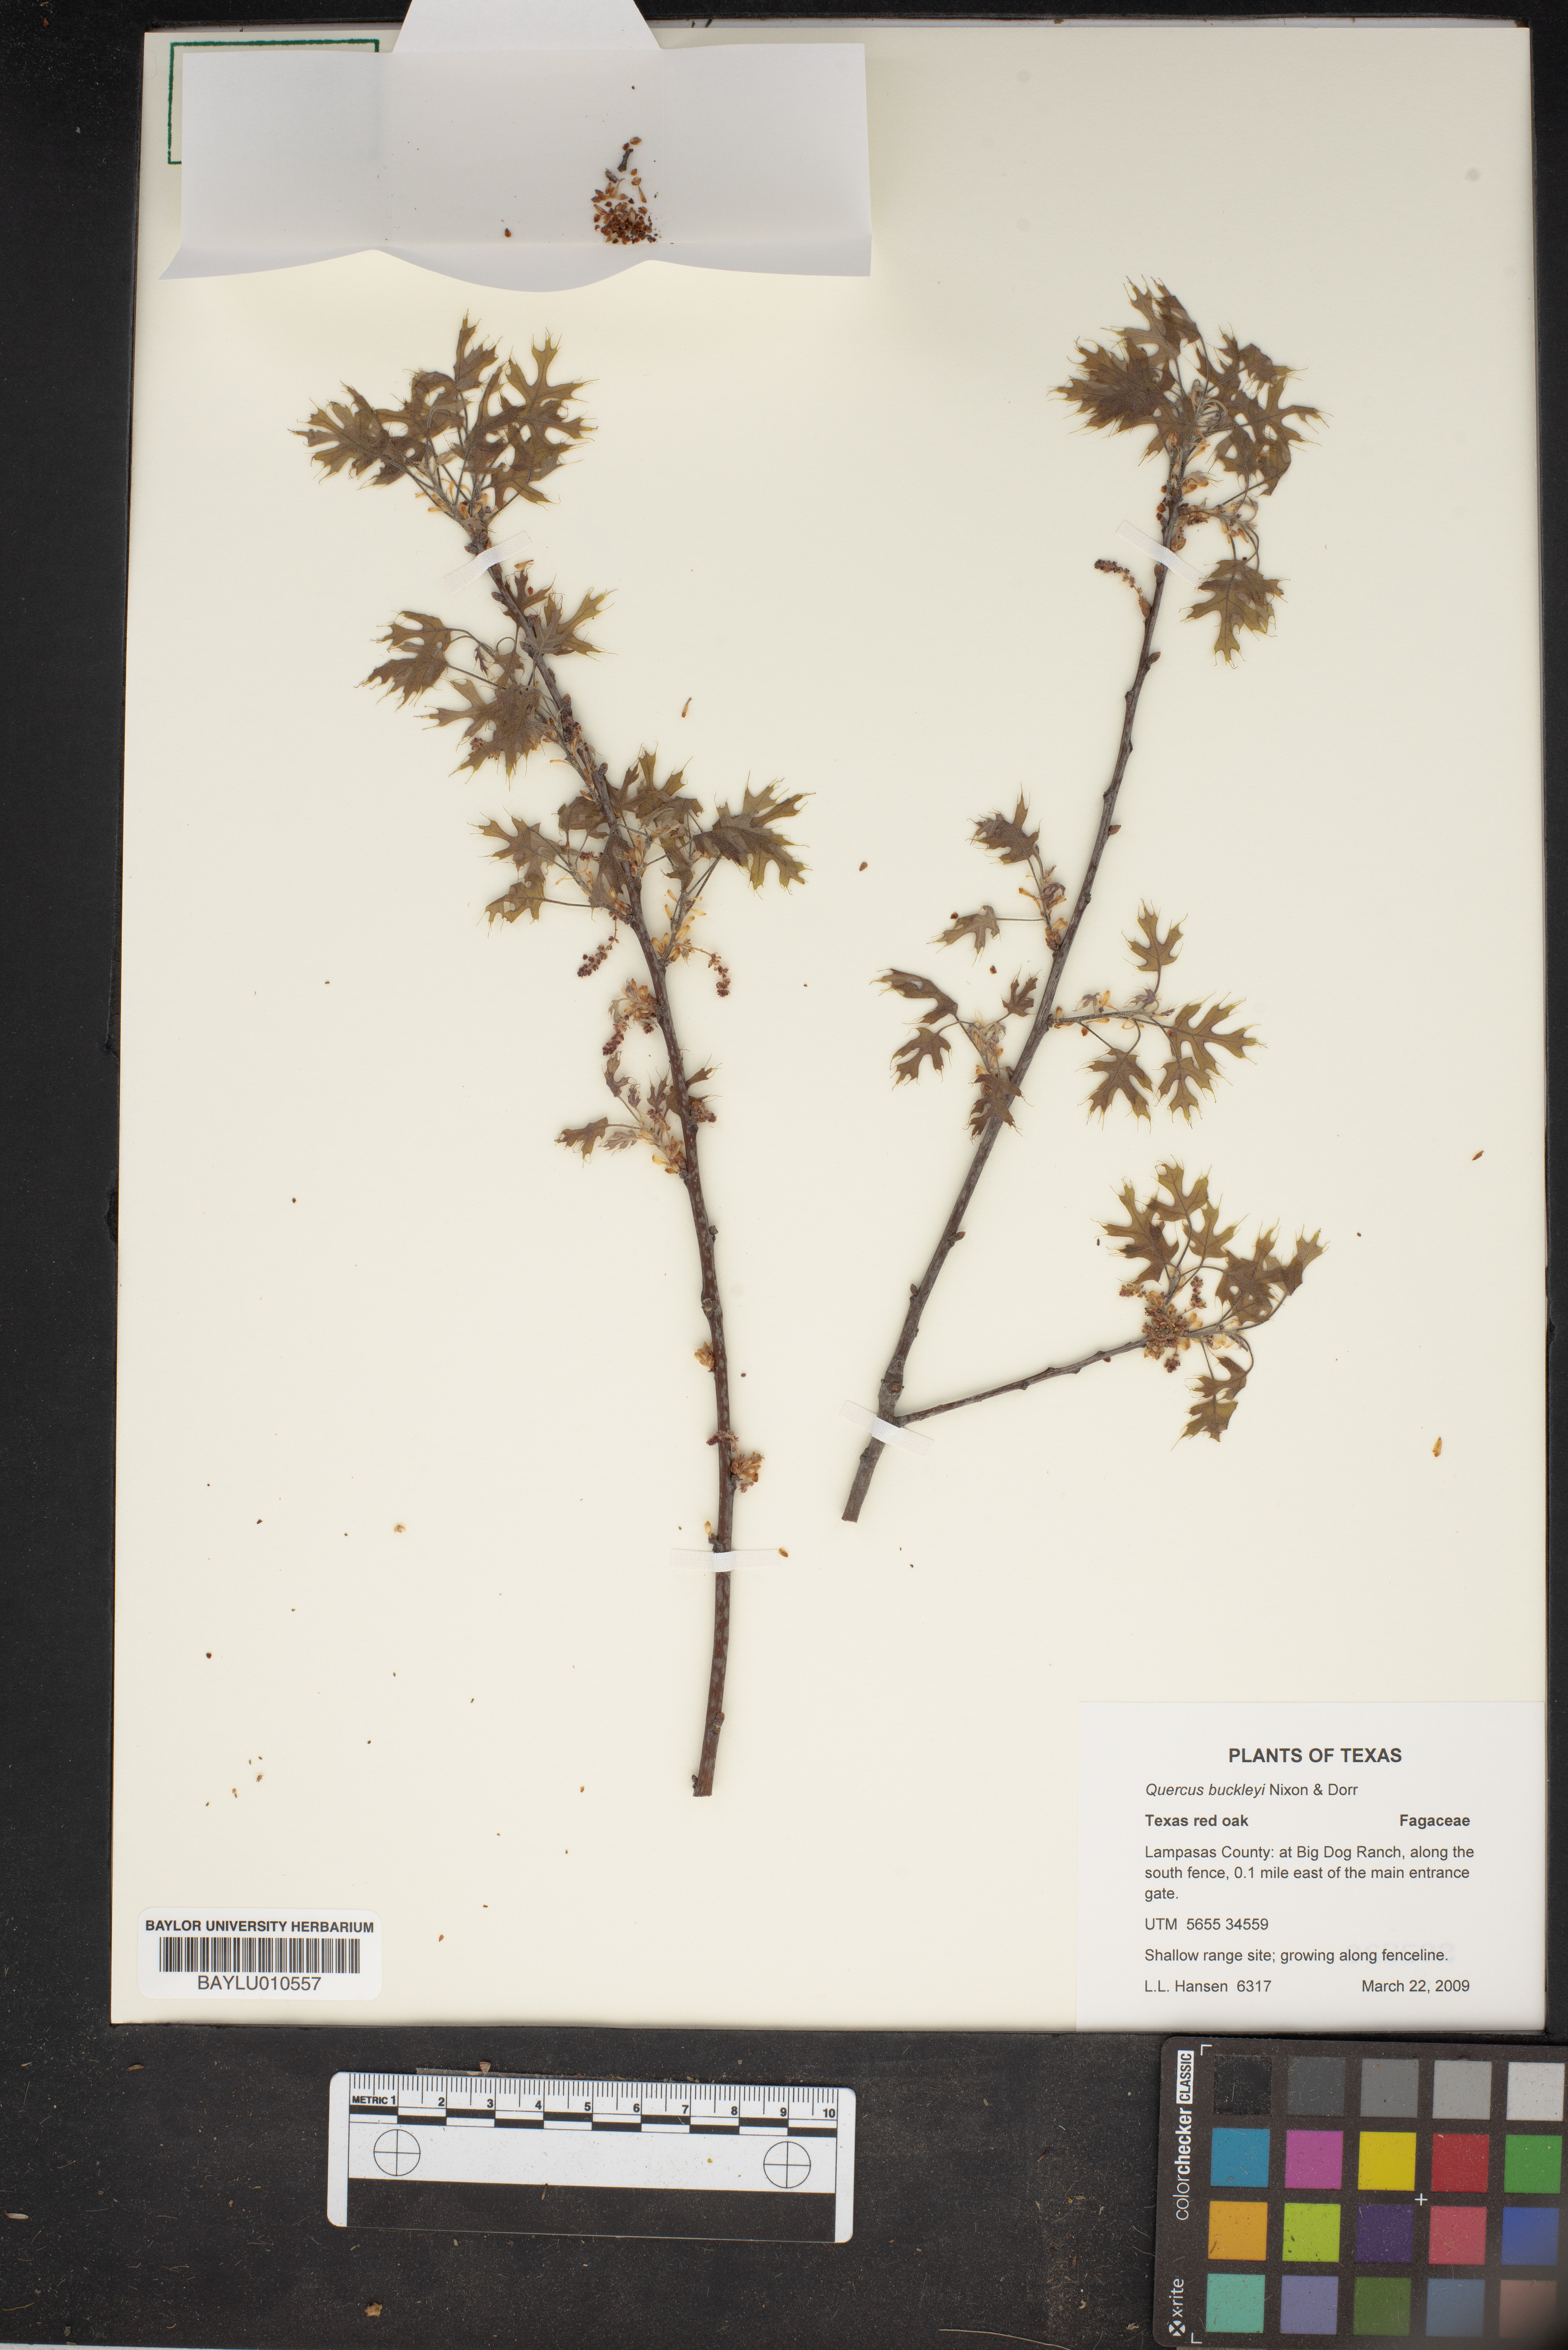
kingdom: Plantae
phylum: Tracheophyta
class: Magnoliopsida
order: Fagales
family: Fagaceae
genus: Quercus
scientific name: Quercus buckleyi
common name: Buckley oak
